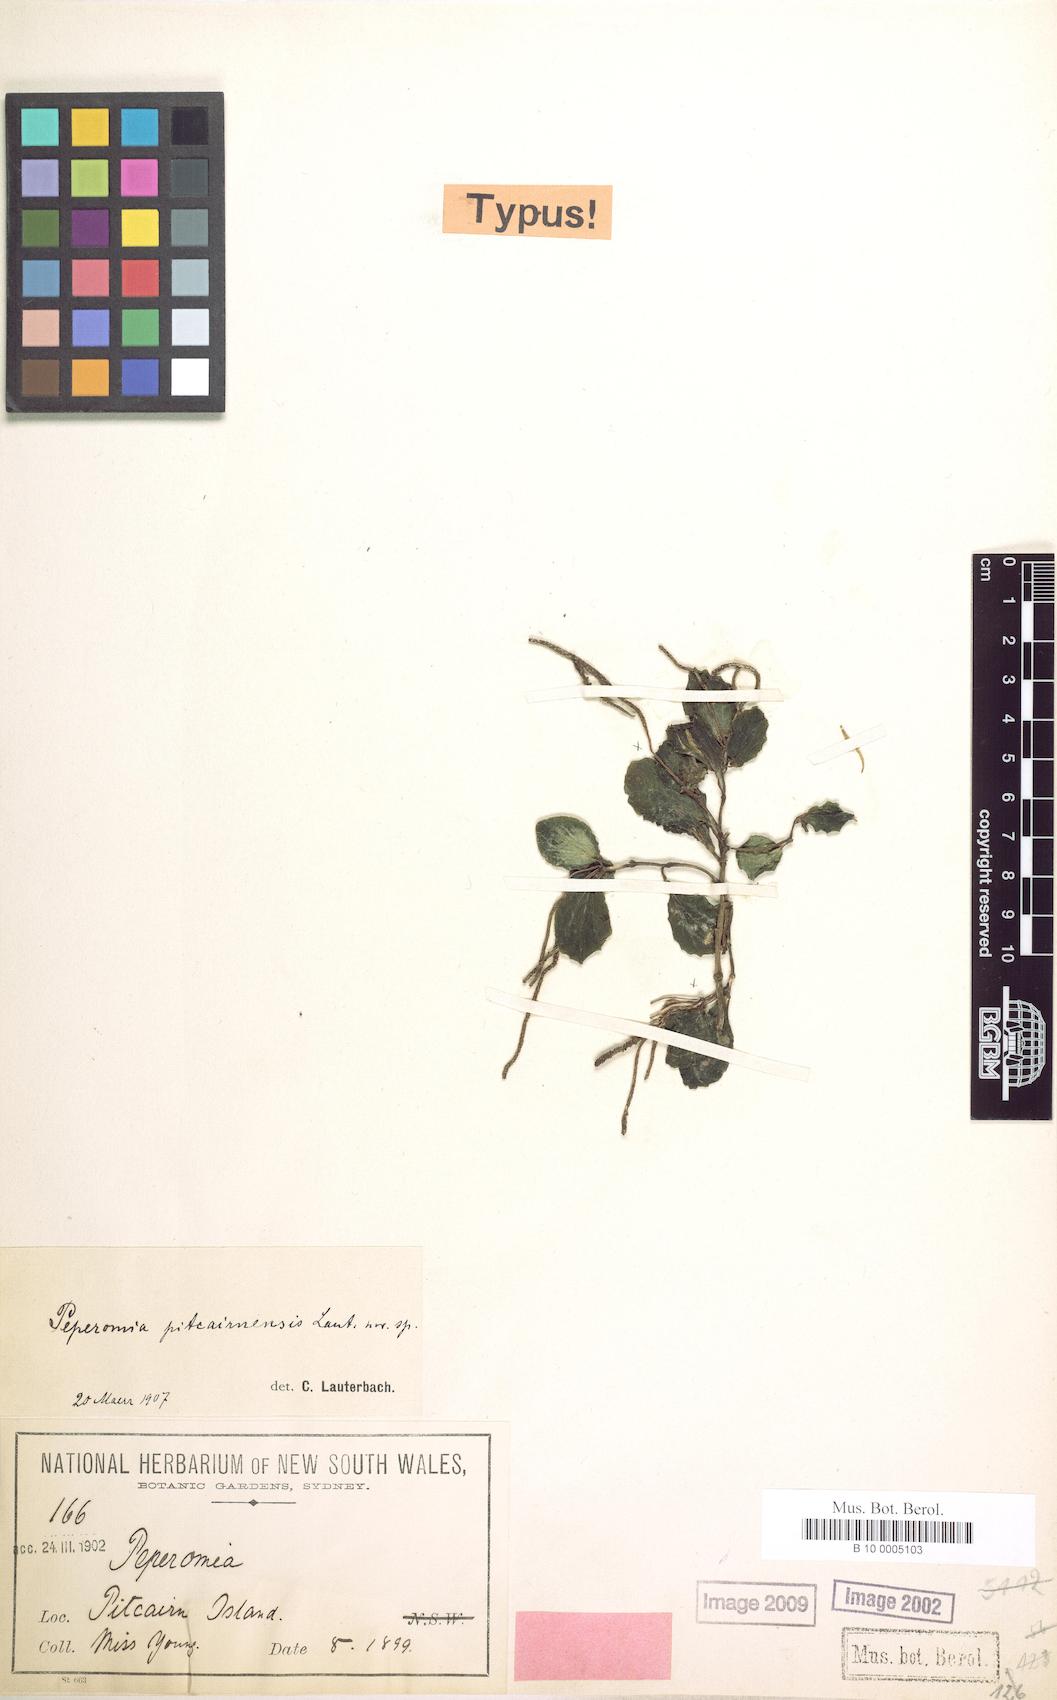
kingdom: Plantae
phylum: Tracheophyta
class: Magnoliopsida
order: Piperales
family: Piperaceae
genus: Peperomia
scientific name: Peperomia leptostachya
